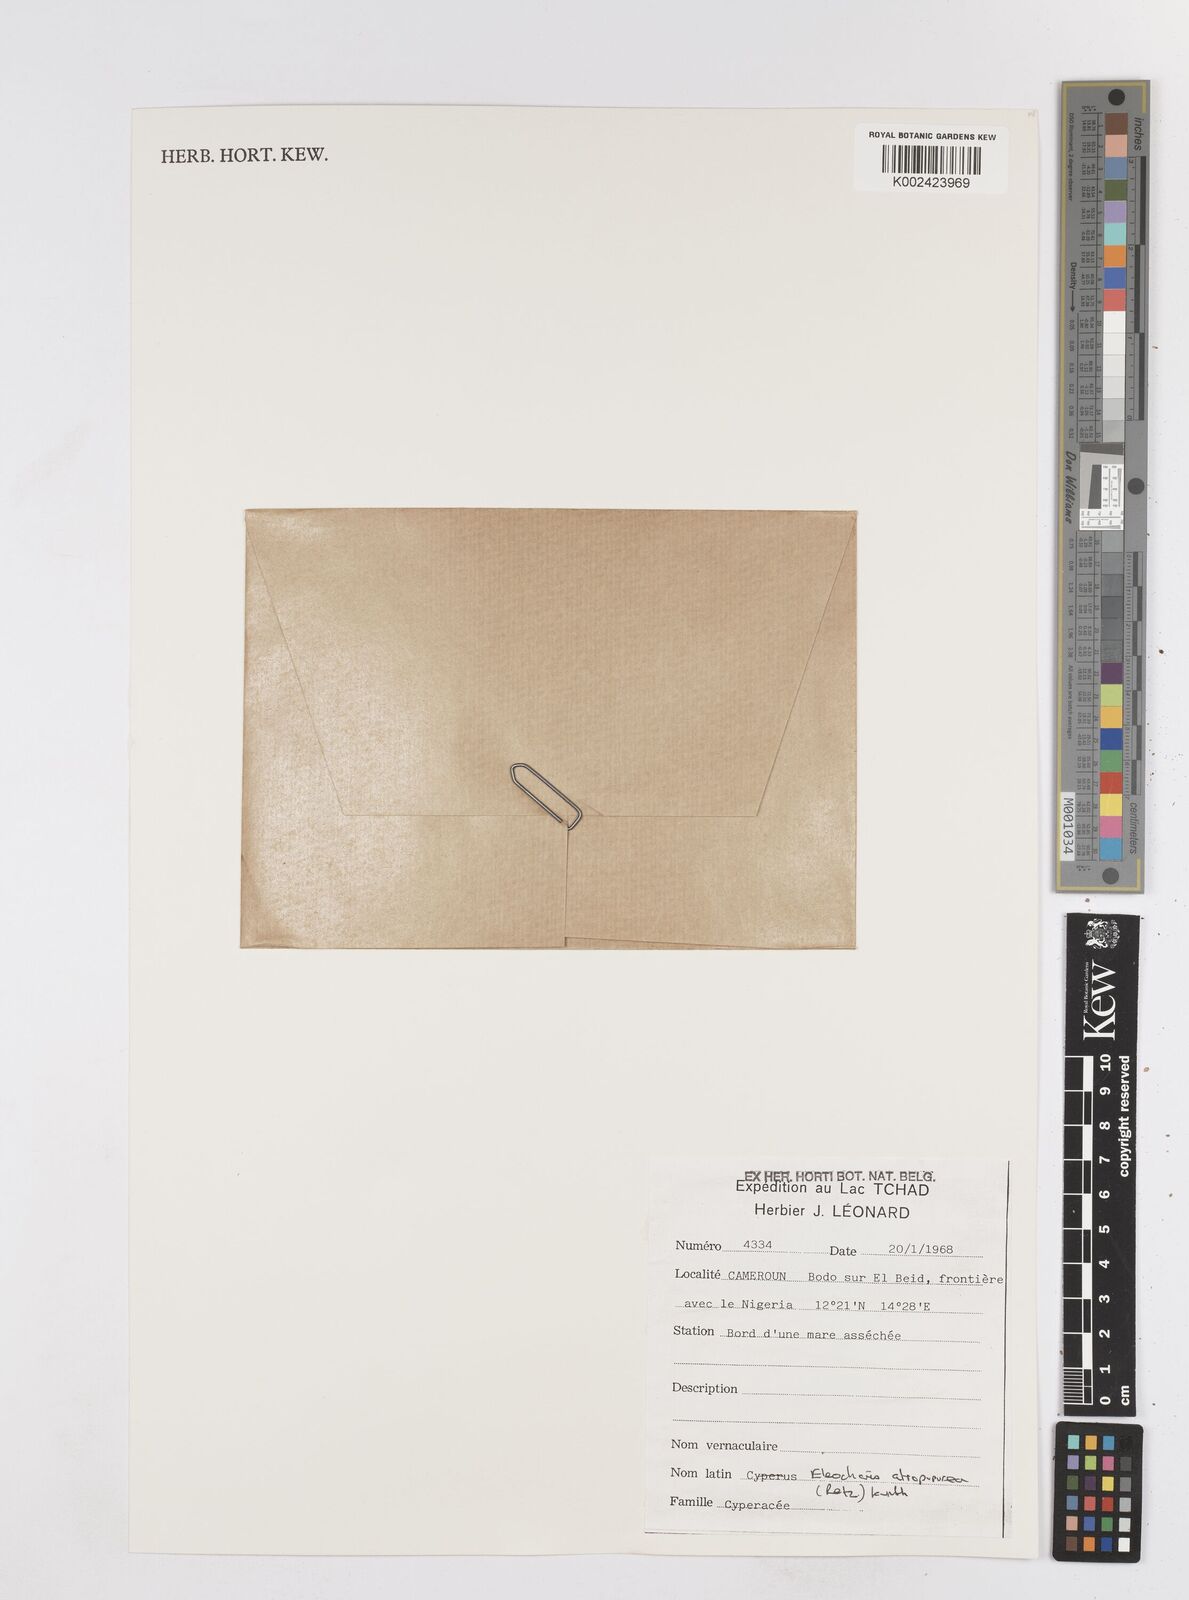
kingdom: Plantae
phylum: Tracheophyta
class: Liliopsida
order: Poales
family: Cyperaceae
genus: Eleocharis
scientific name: Eleocharis atropurpurea
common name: Purple spikerush
